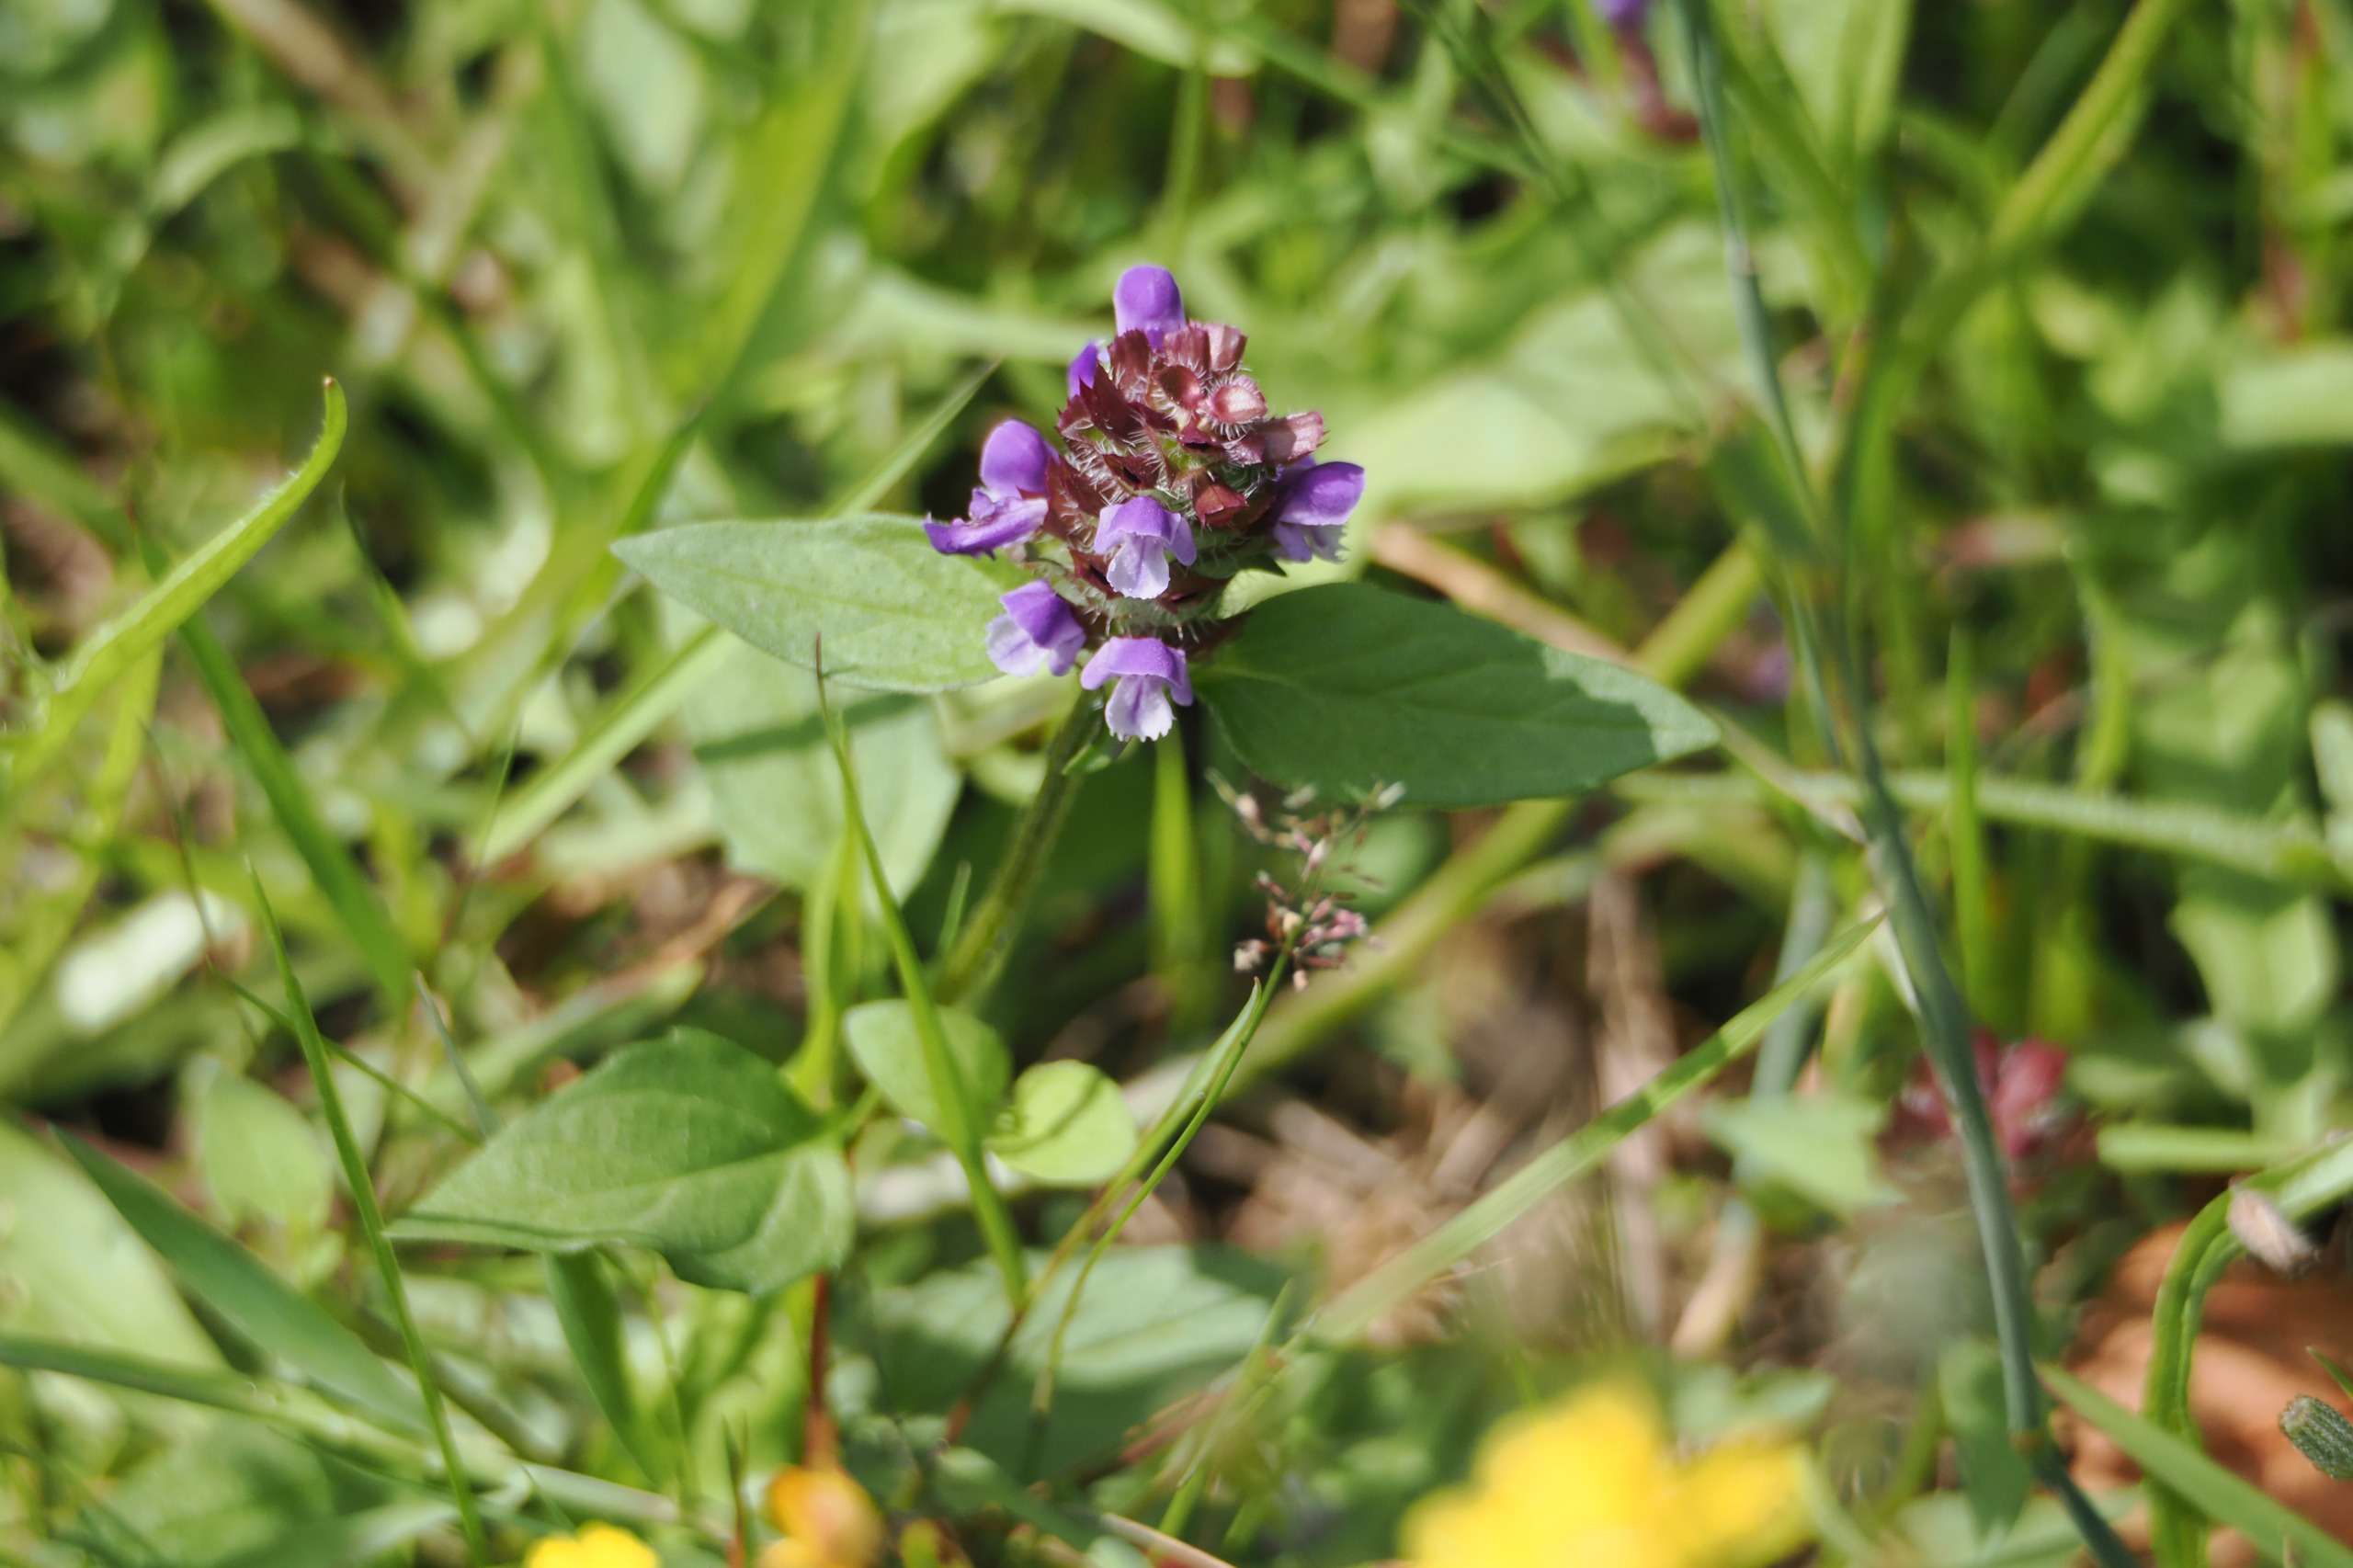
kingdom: Plantae
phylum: Tracheophyta
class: Magnoliopsida
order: Lamiales
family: Lamiaceae
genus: Prunella
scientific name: Prunella vulgaris
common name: Almindelig brunelle
